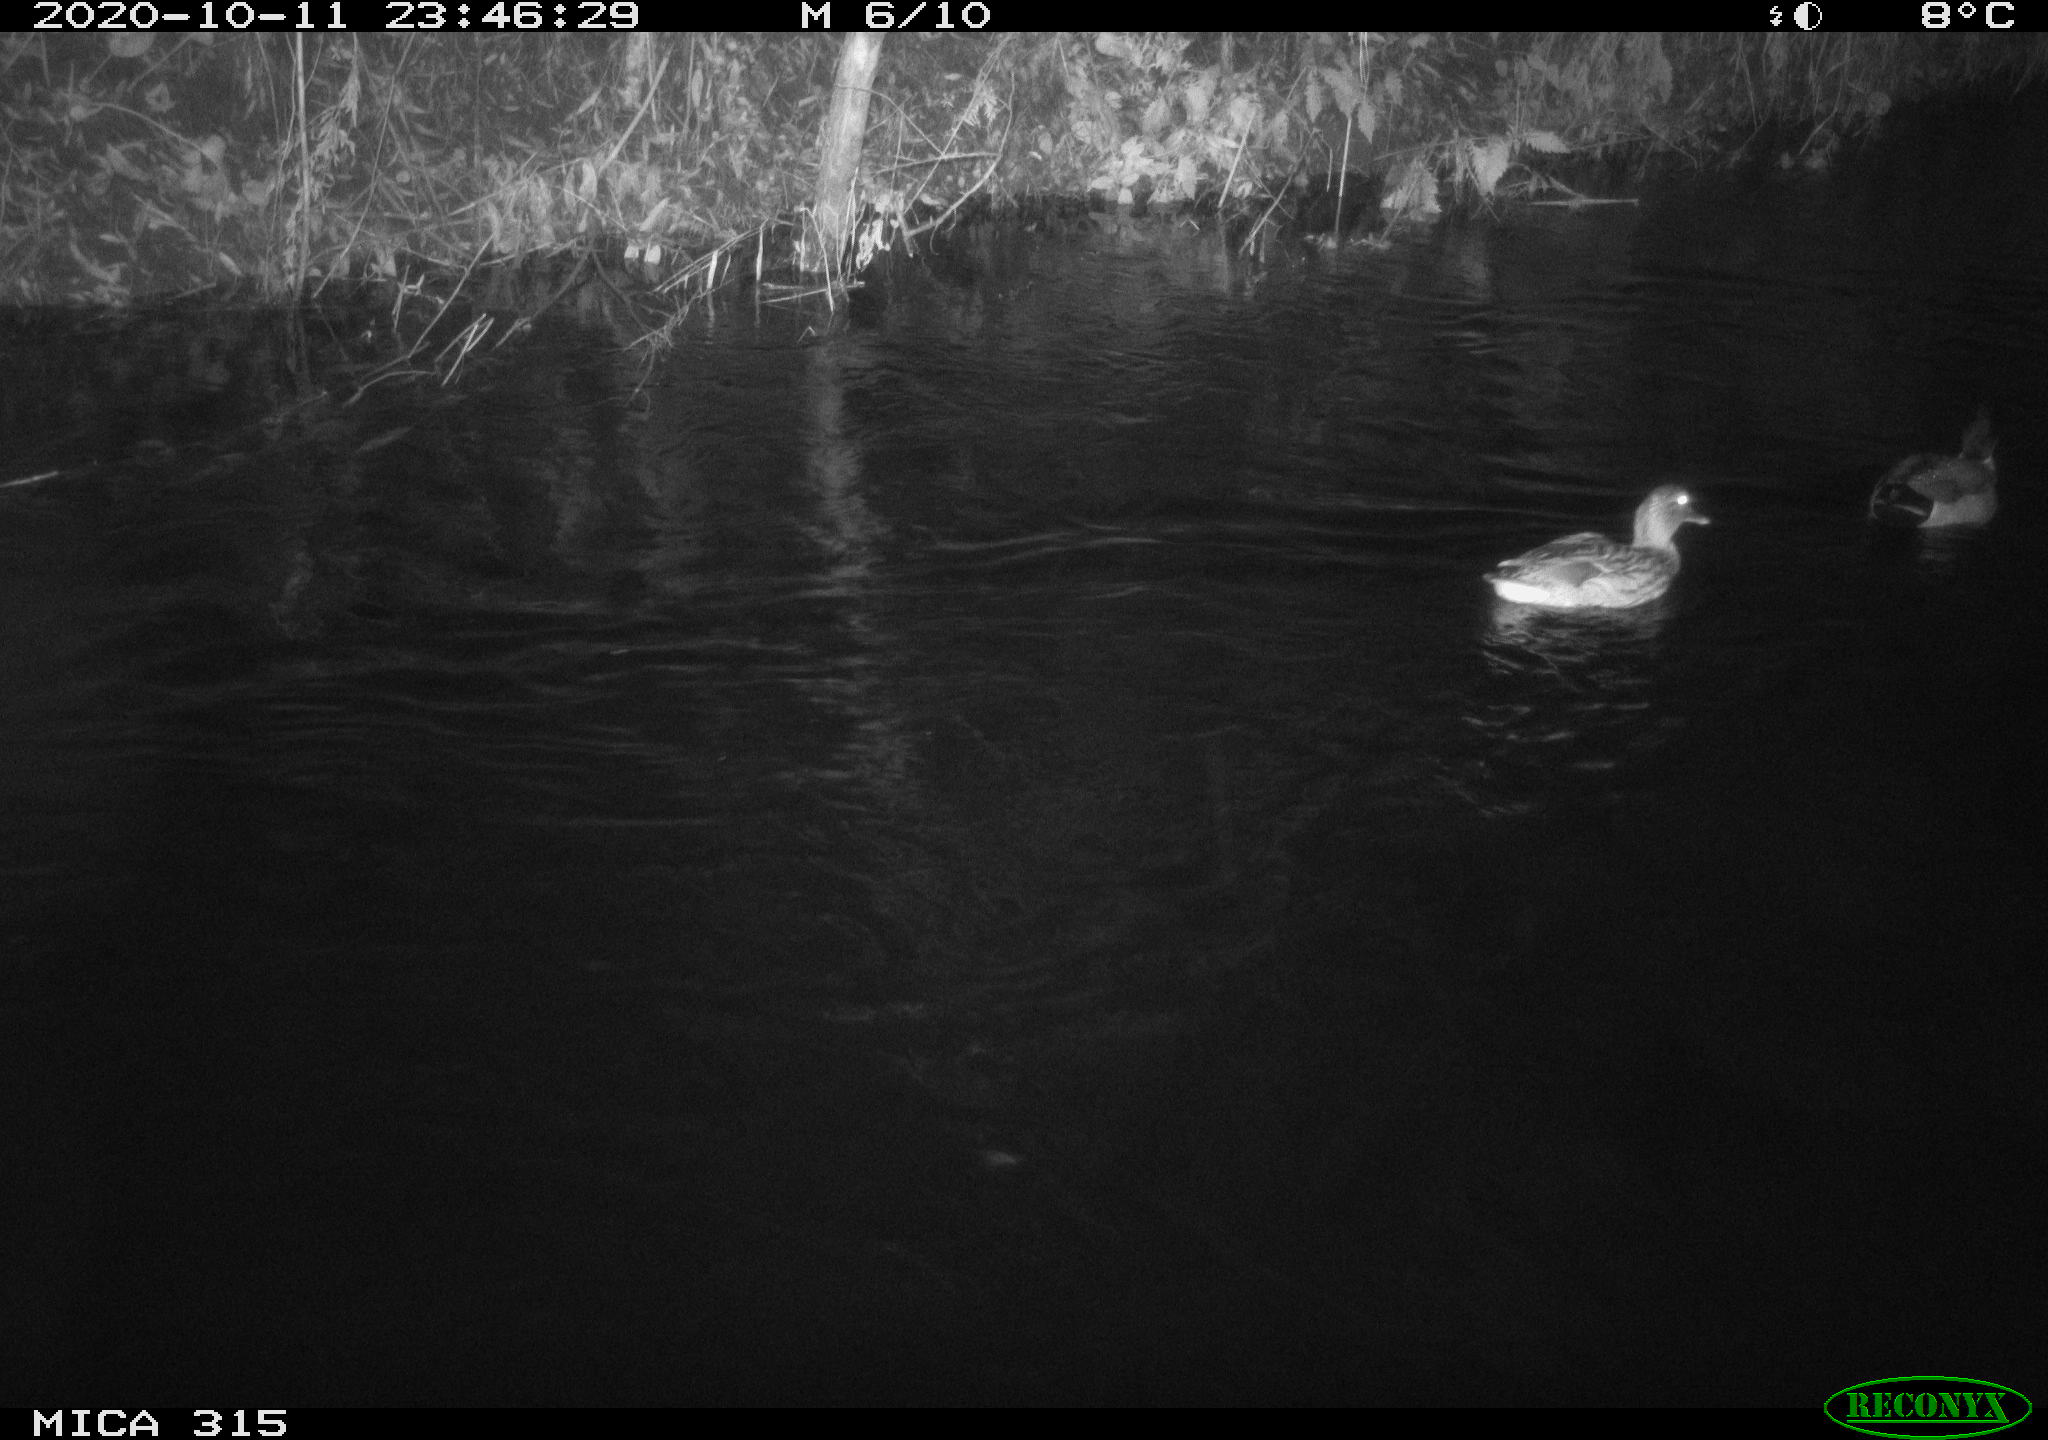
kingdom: Animalia
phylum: Chordata
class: Aves
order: Anseriformes
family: Anatidae
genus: Anas
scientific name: Anas platyrhynchos
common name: Mallard
